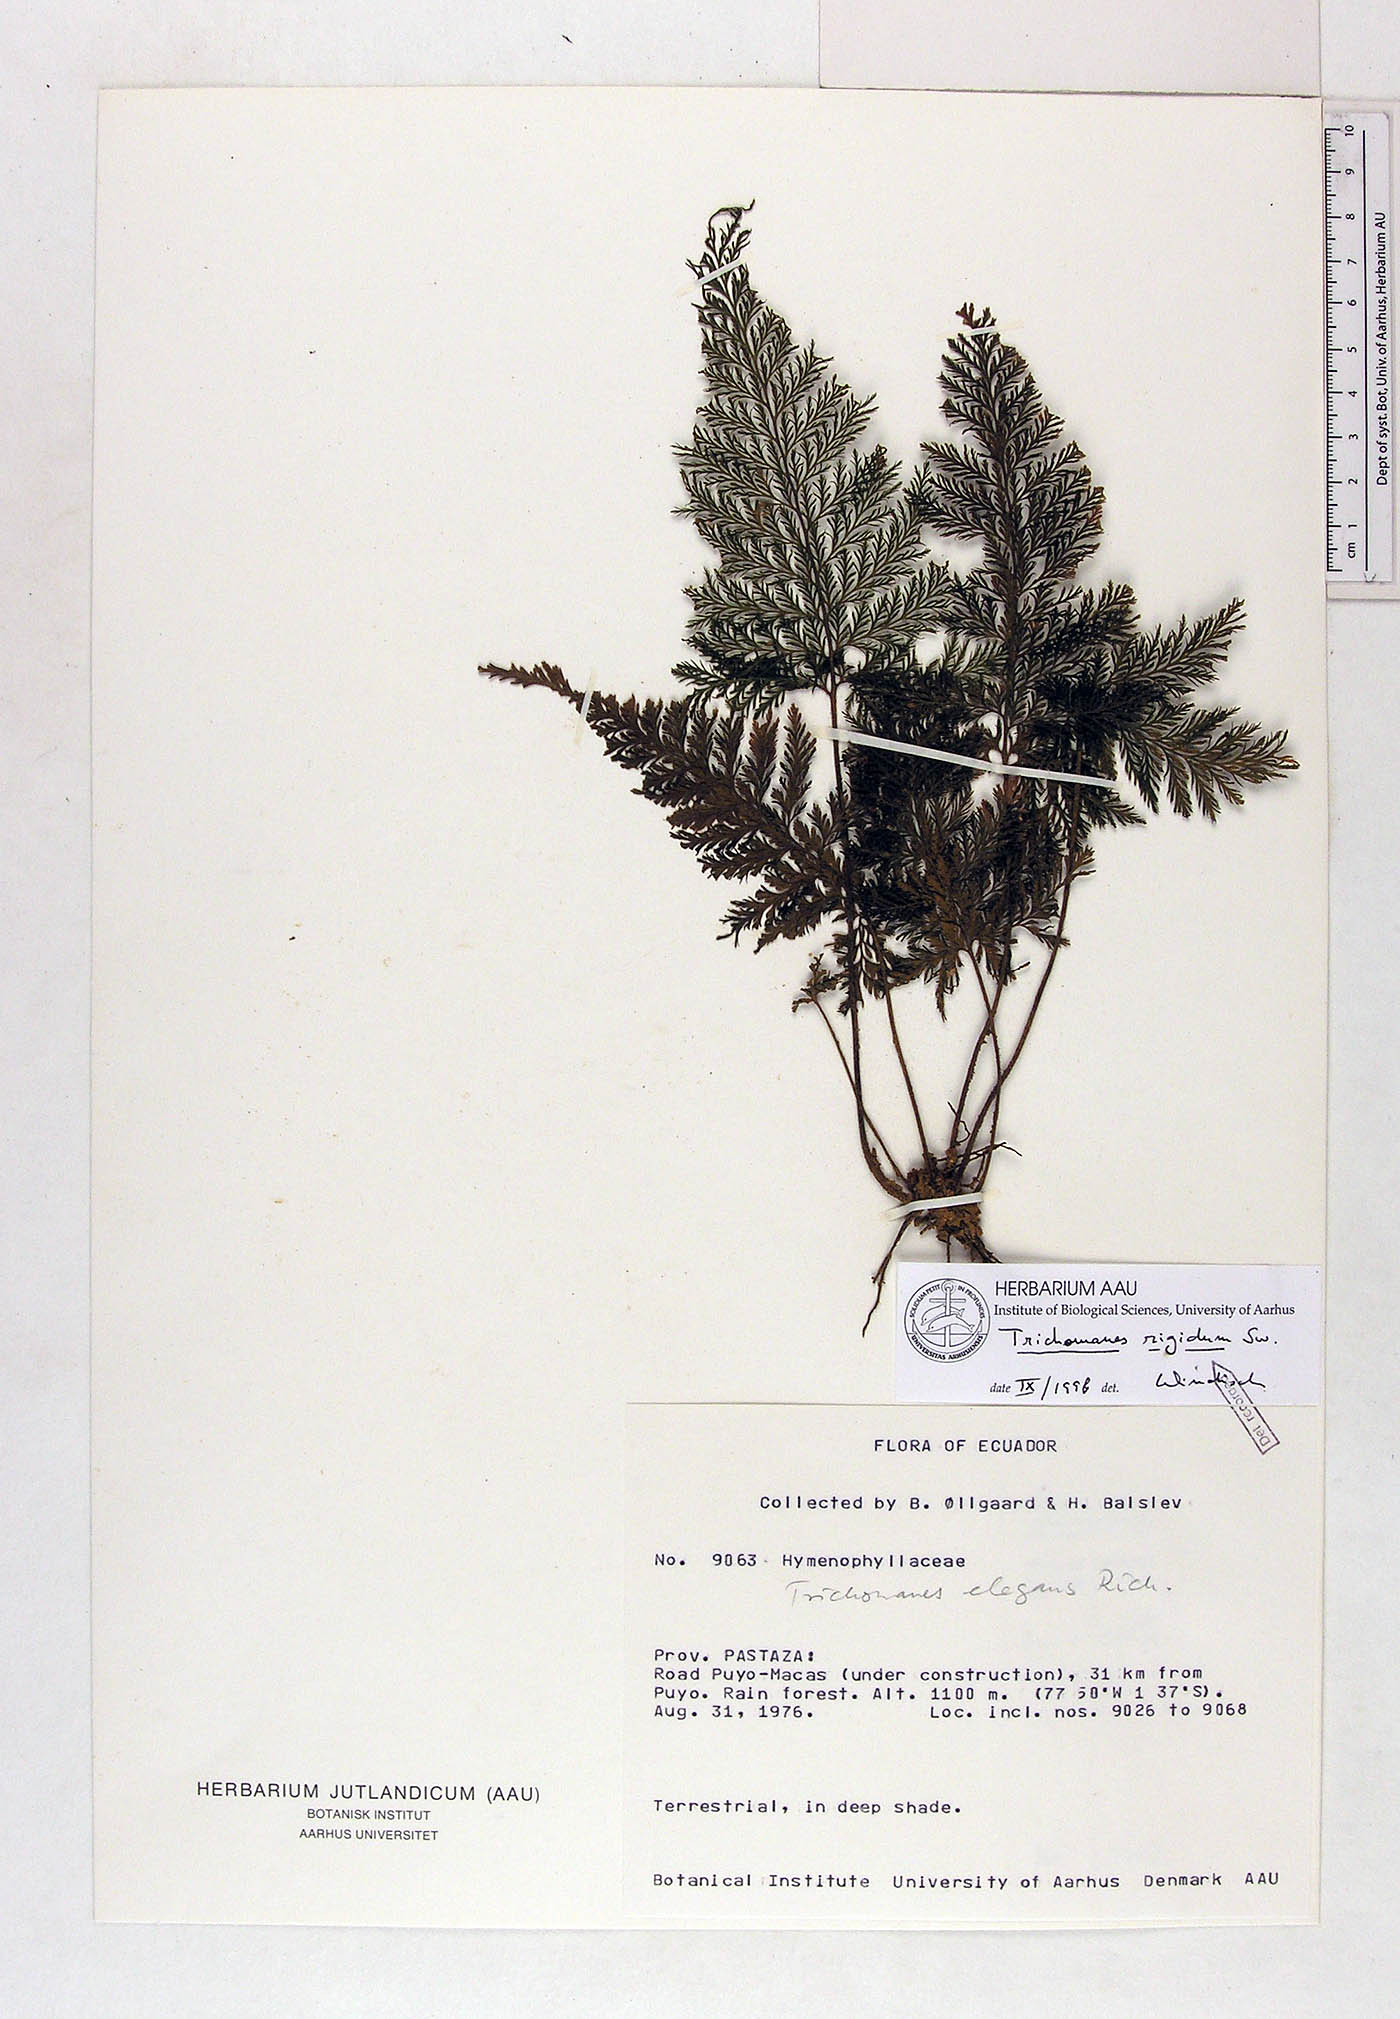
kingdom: Plantae
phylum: Tracheophyta
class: Polypodiopsida
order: Hymenophyllales
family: Hymenophyllaceae
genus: Abrodictyum
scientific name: Abrodictyum rigidum
